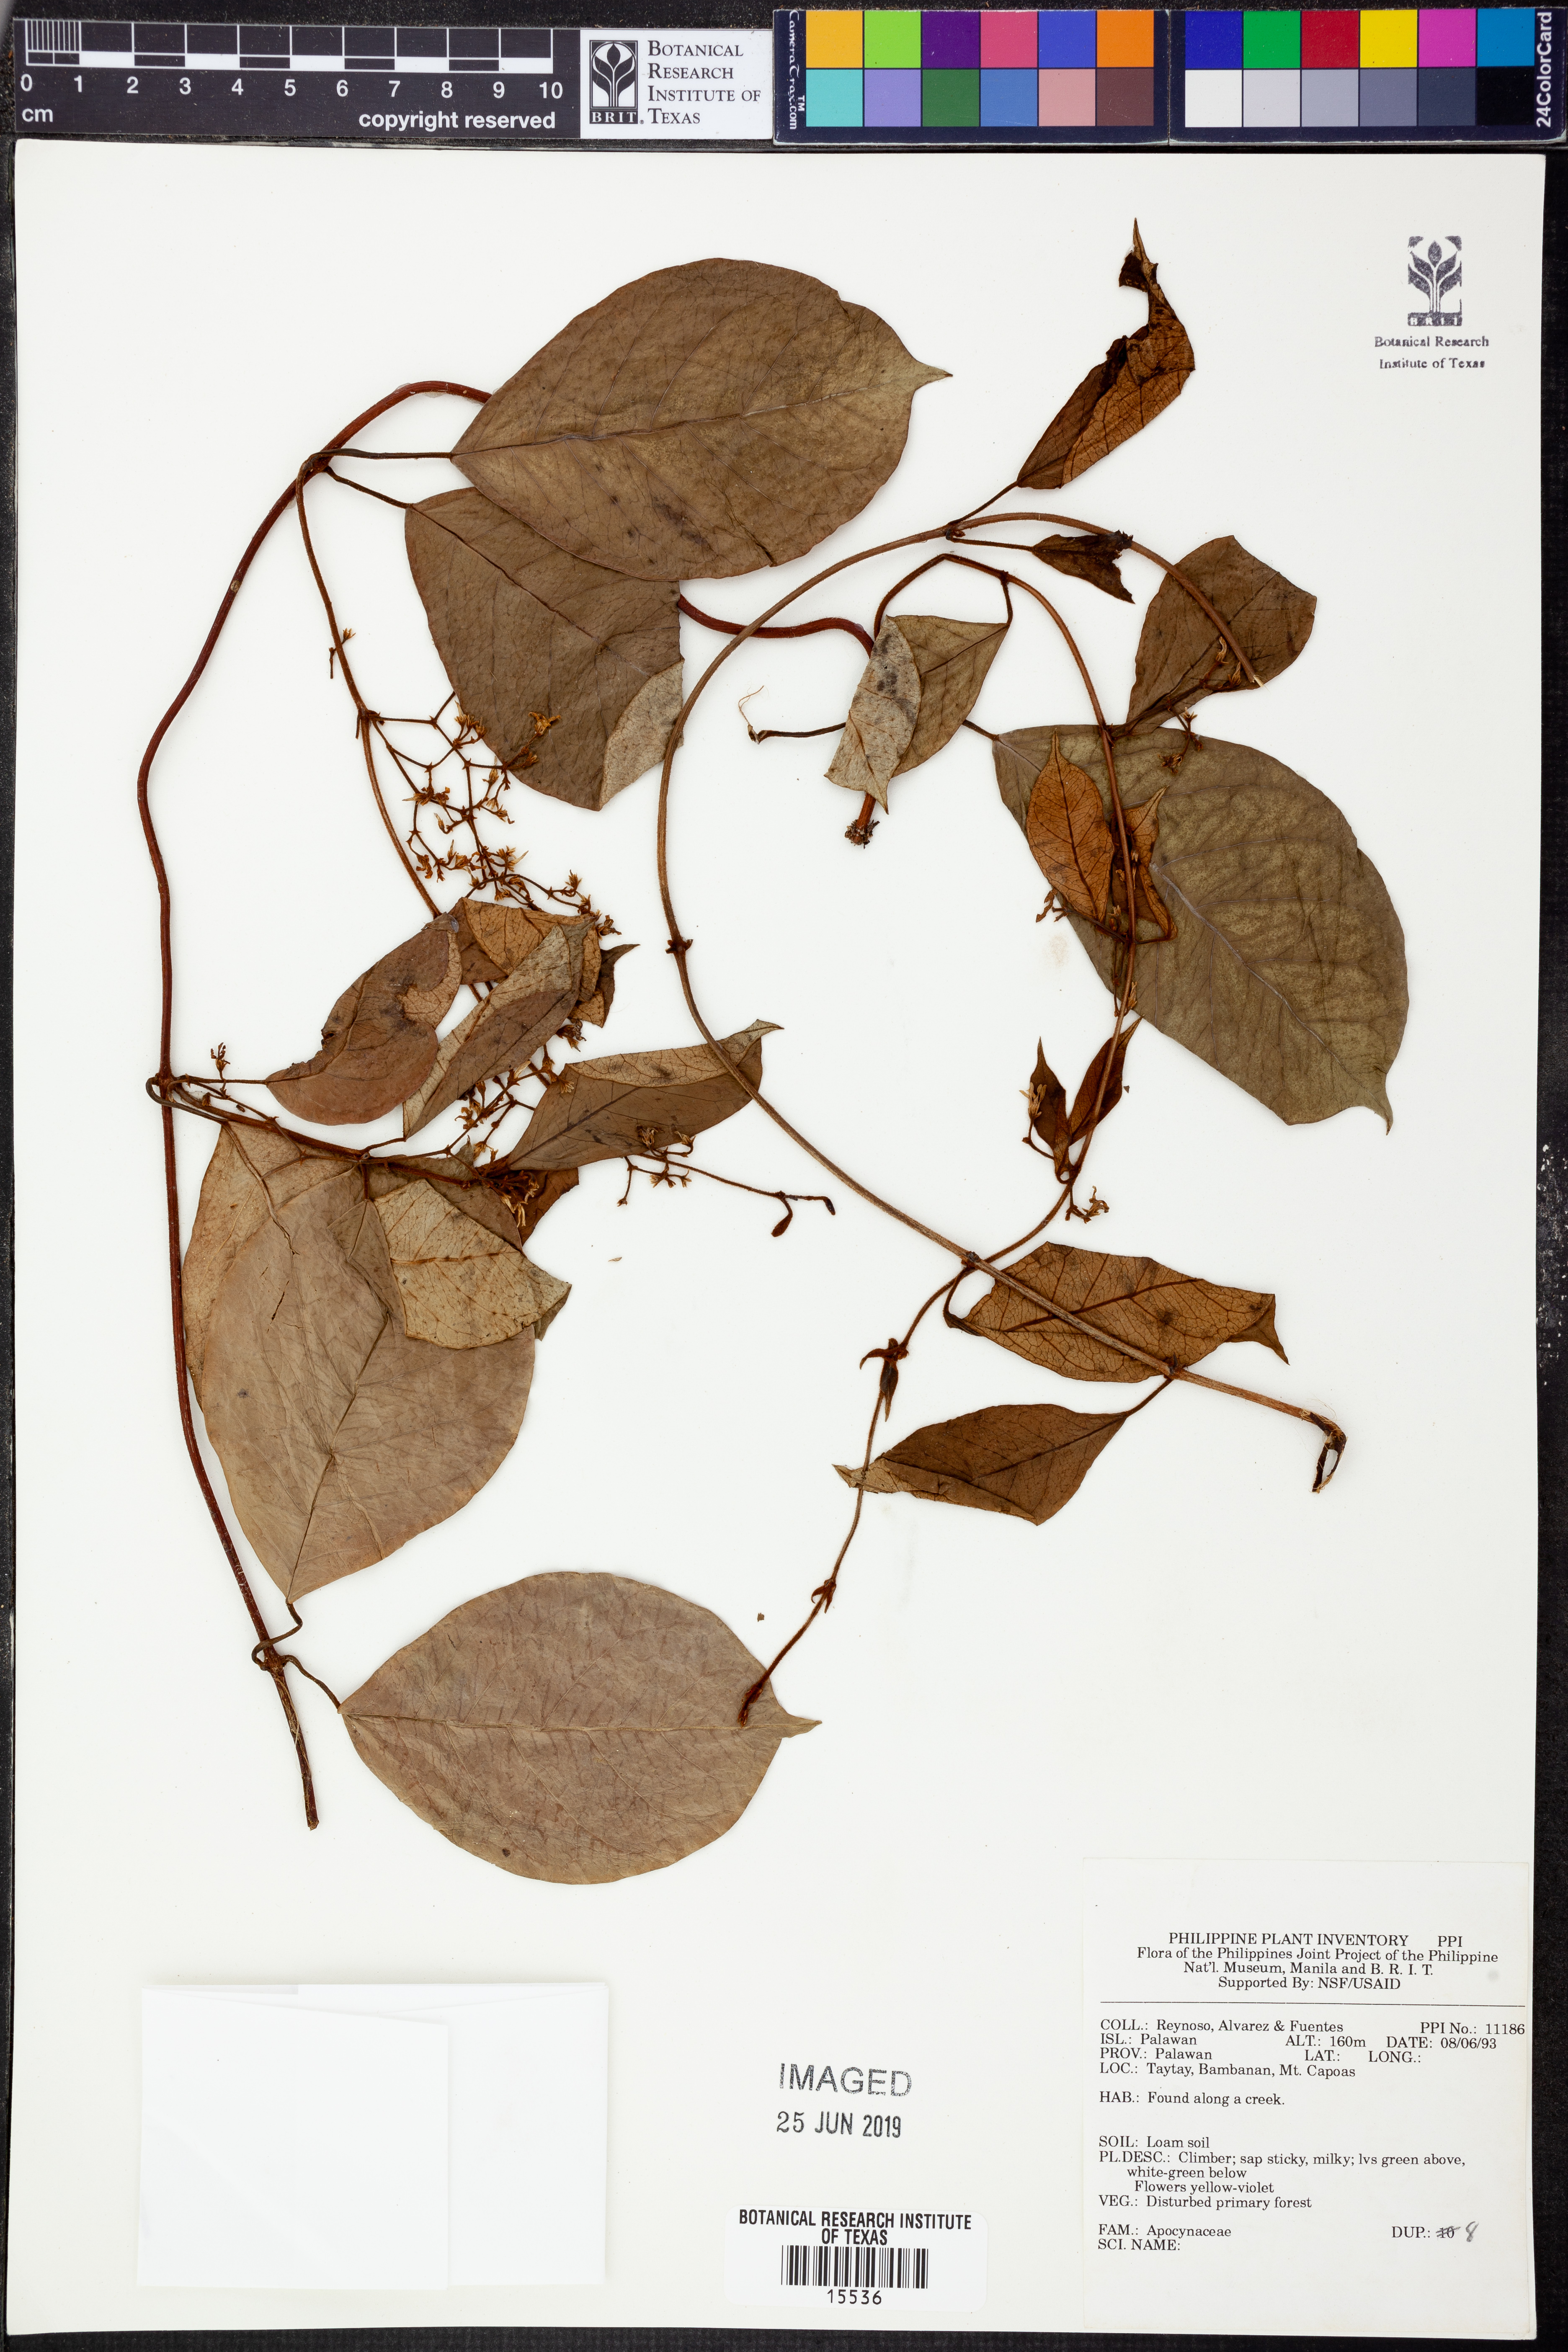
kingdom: Plantae
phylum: Tracheophyta
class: Magnoliopsida
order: Gentianales
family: Apocynaceae
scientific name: Apocynaceae
